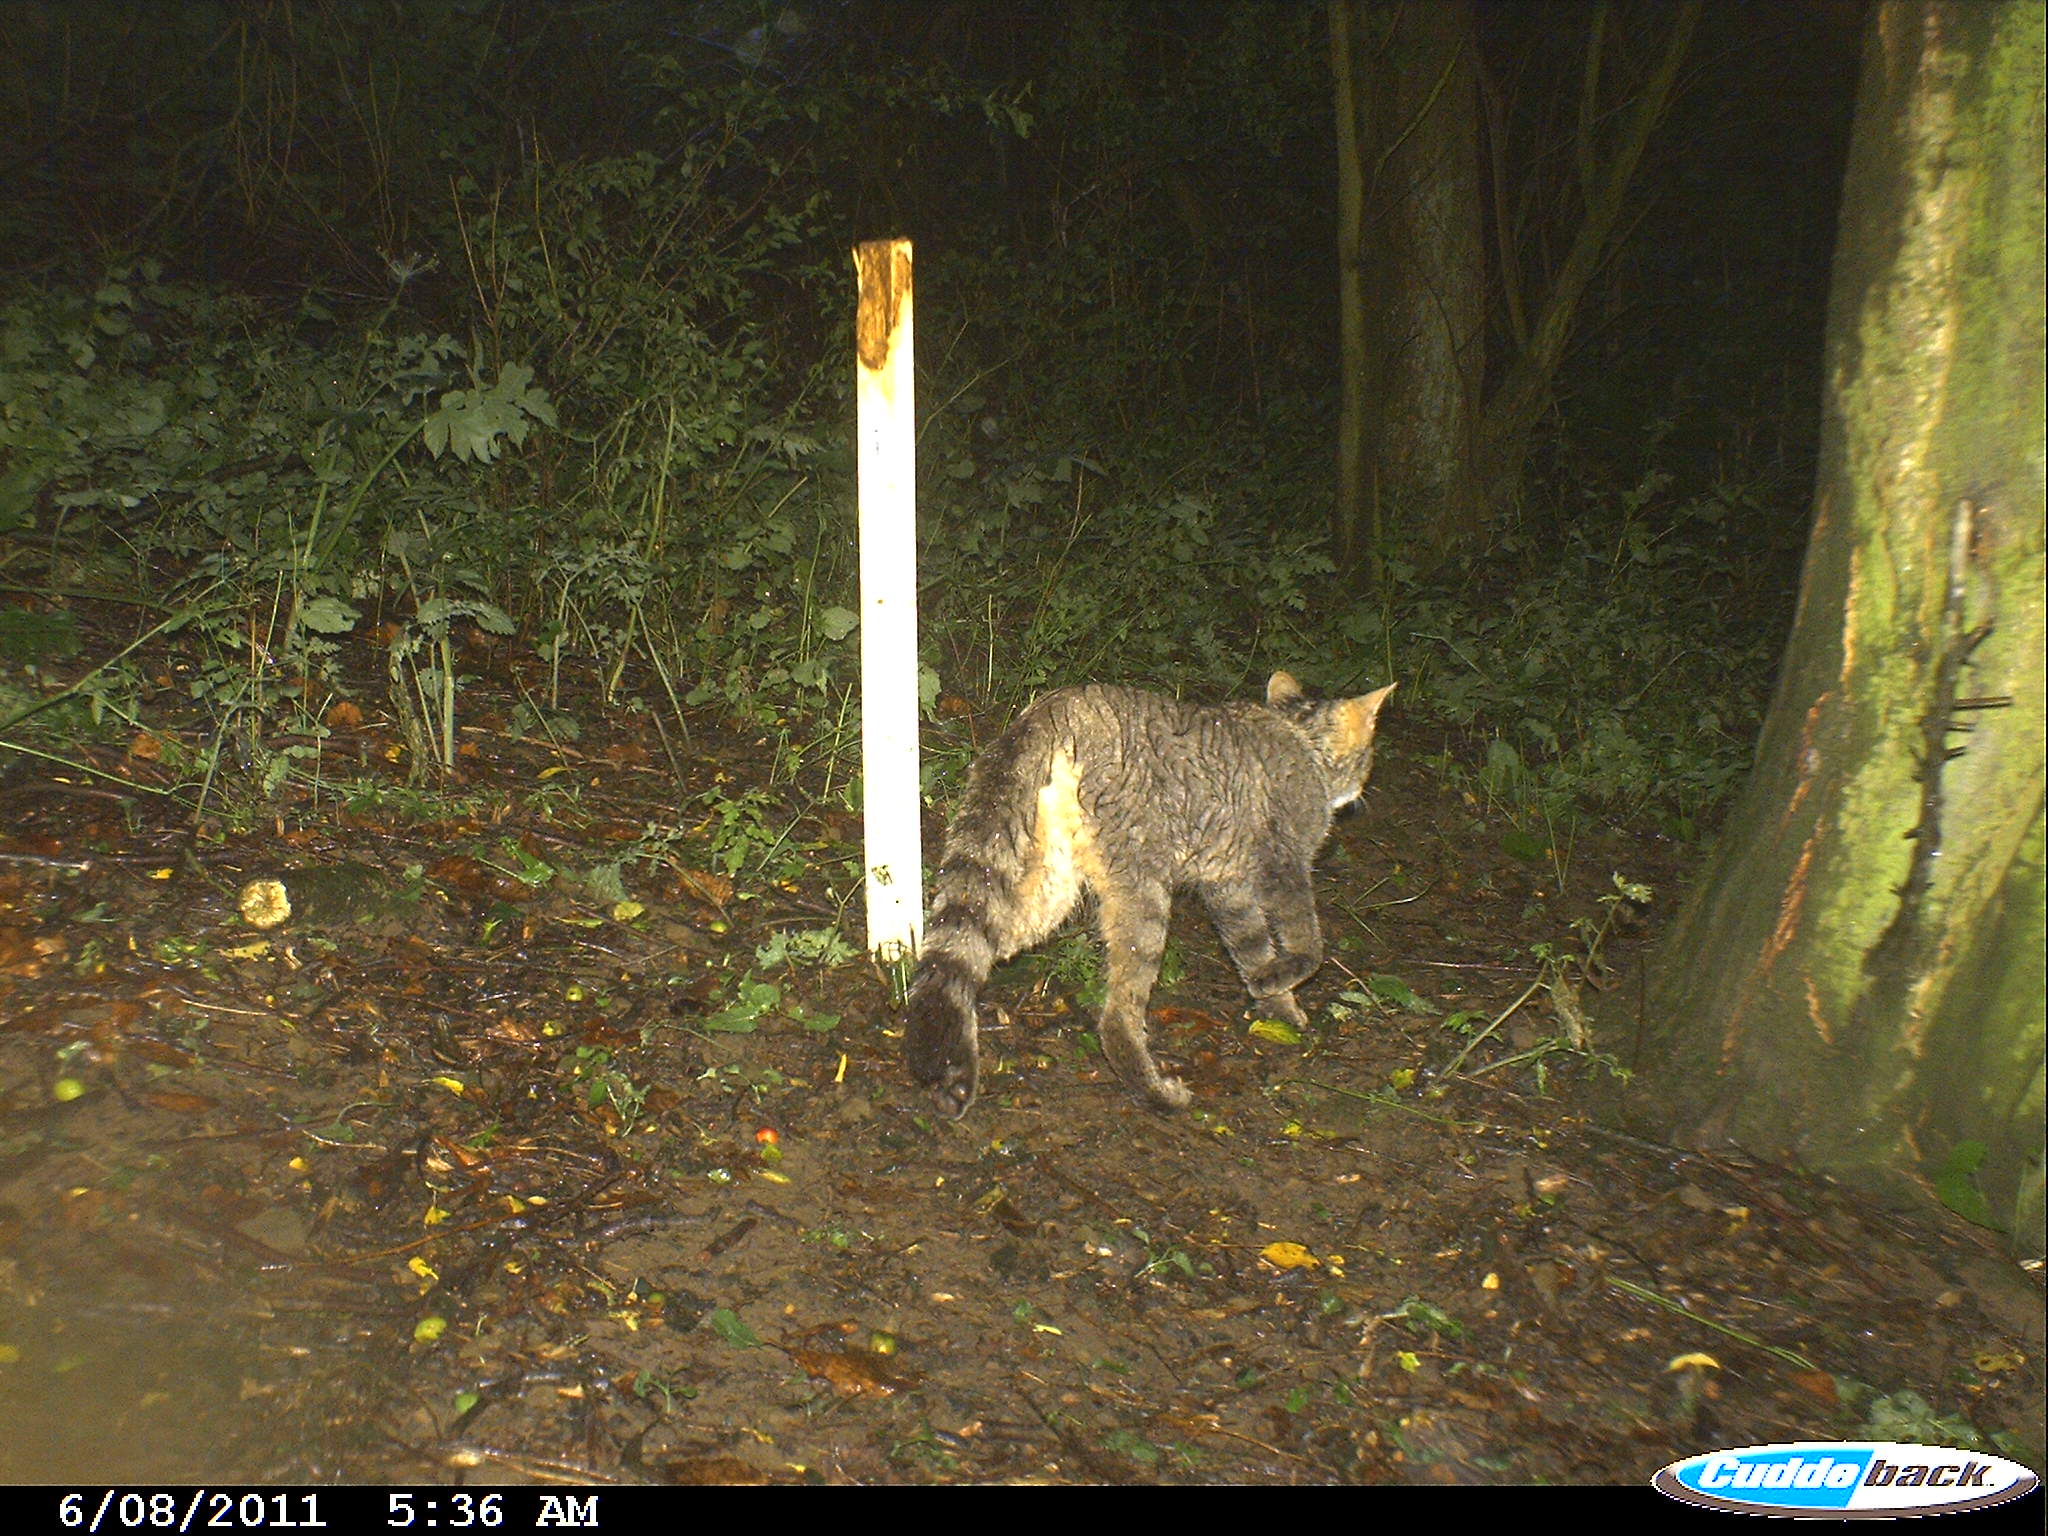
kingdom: Animalia
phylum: Chordata
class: Mammalia
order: Carnivora
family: Felidae
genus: Felis
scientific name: Felis silvestris
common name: Wildcat
